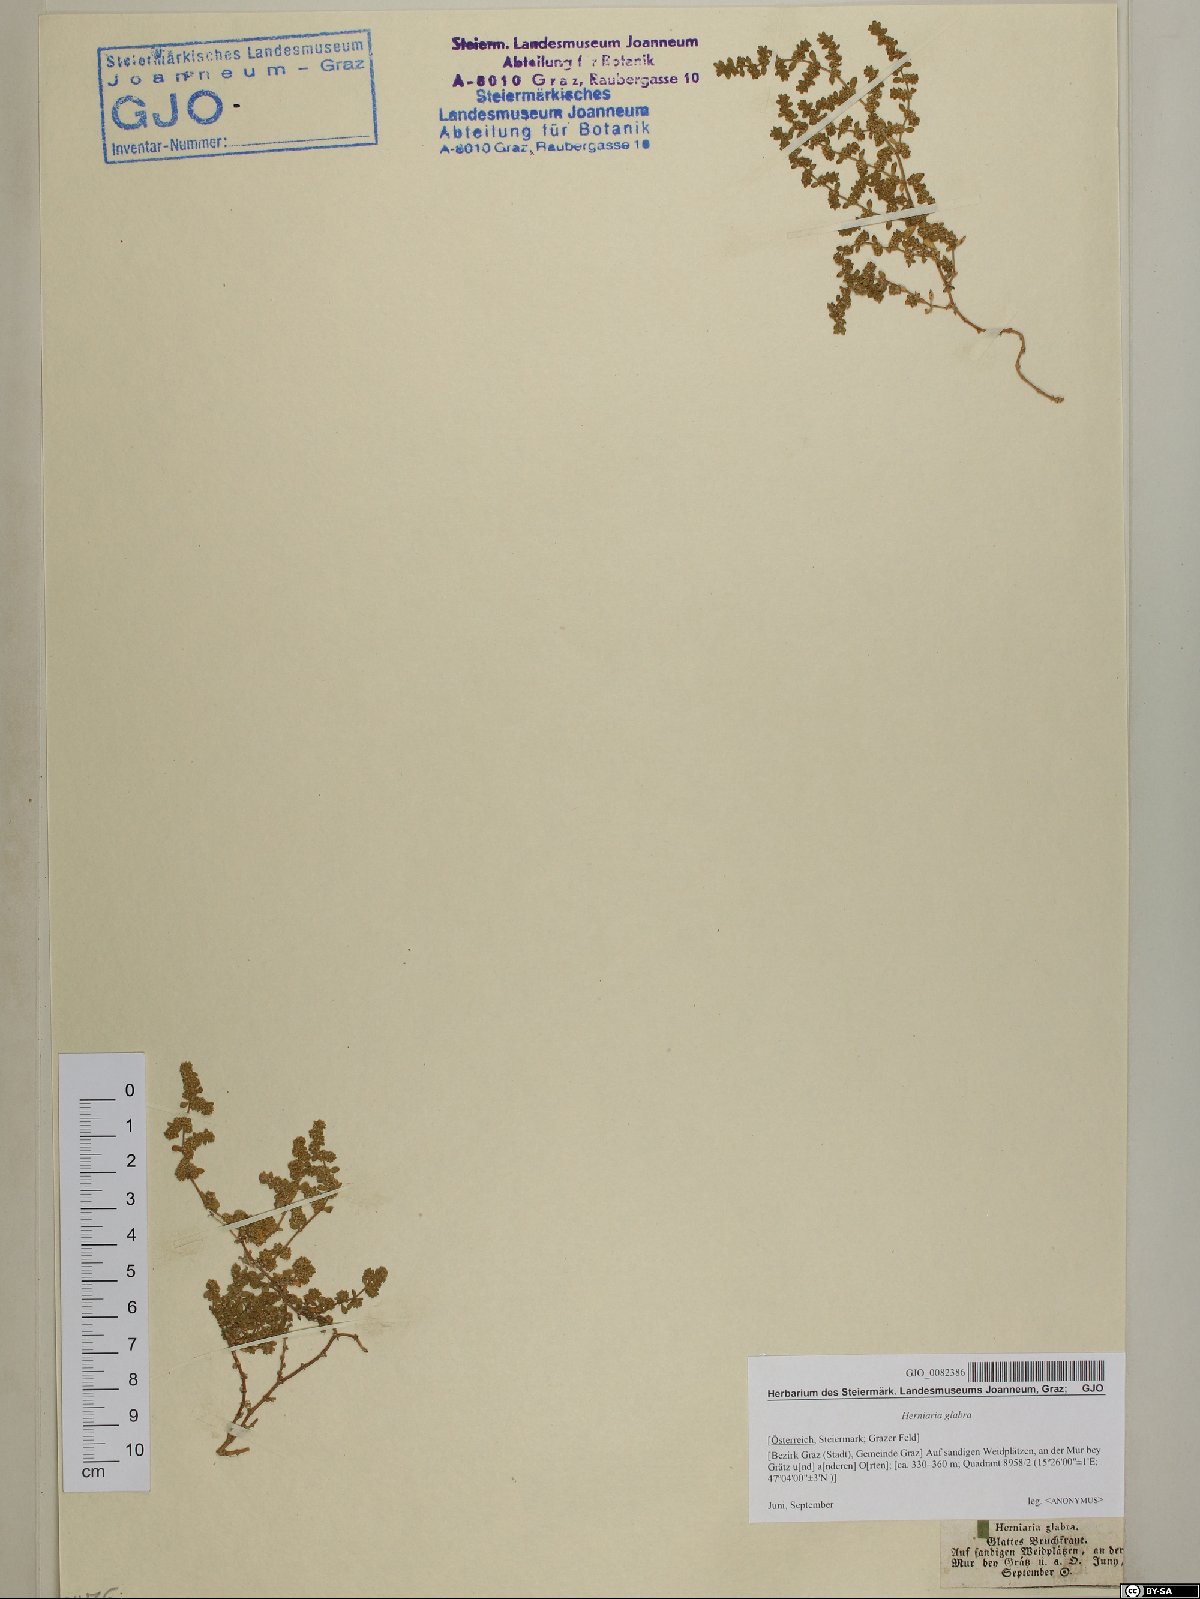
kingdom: Plantae
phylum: Tracheophyta
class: Magnoliopsida
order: Caryophyllales
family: Caryophyllaceae
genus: Herniaria
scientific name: Herniaria glabra
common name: Smooth rupturewort
